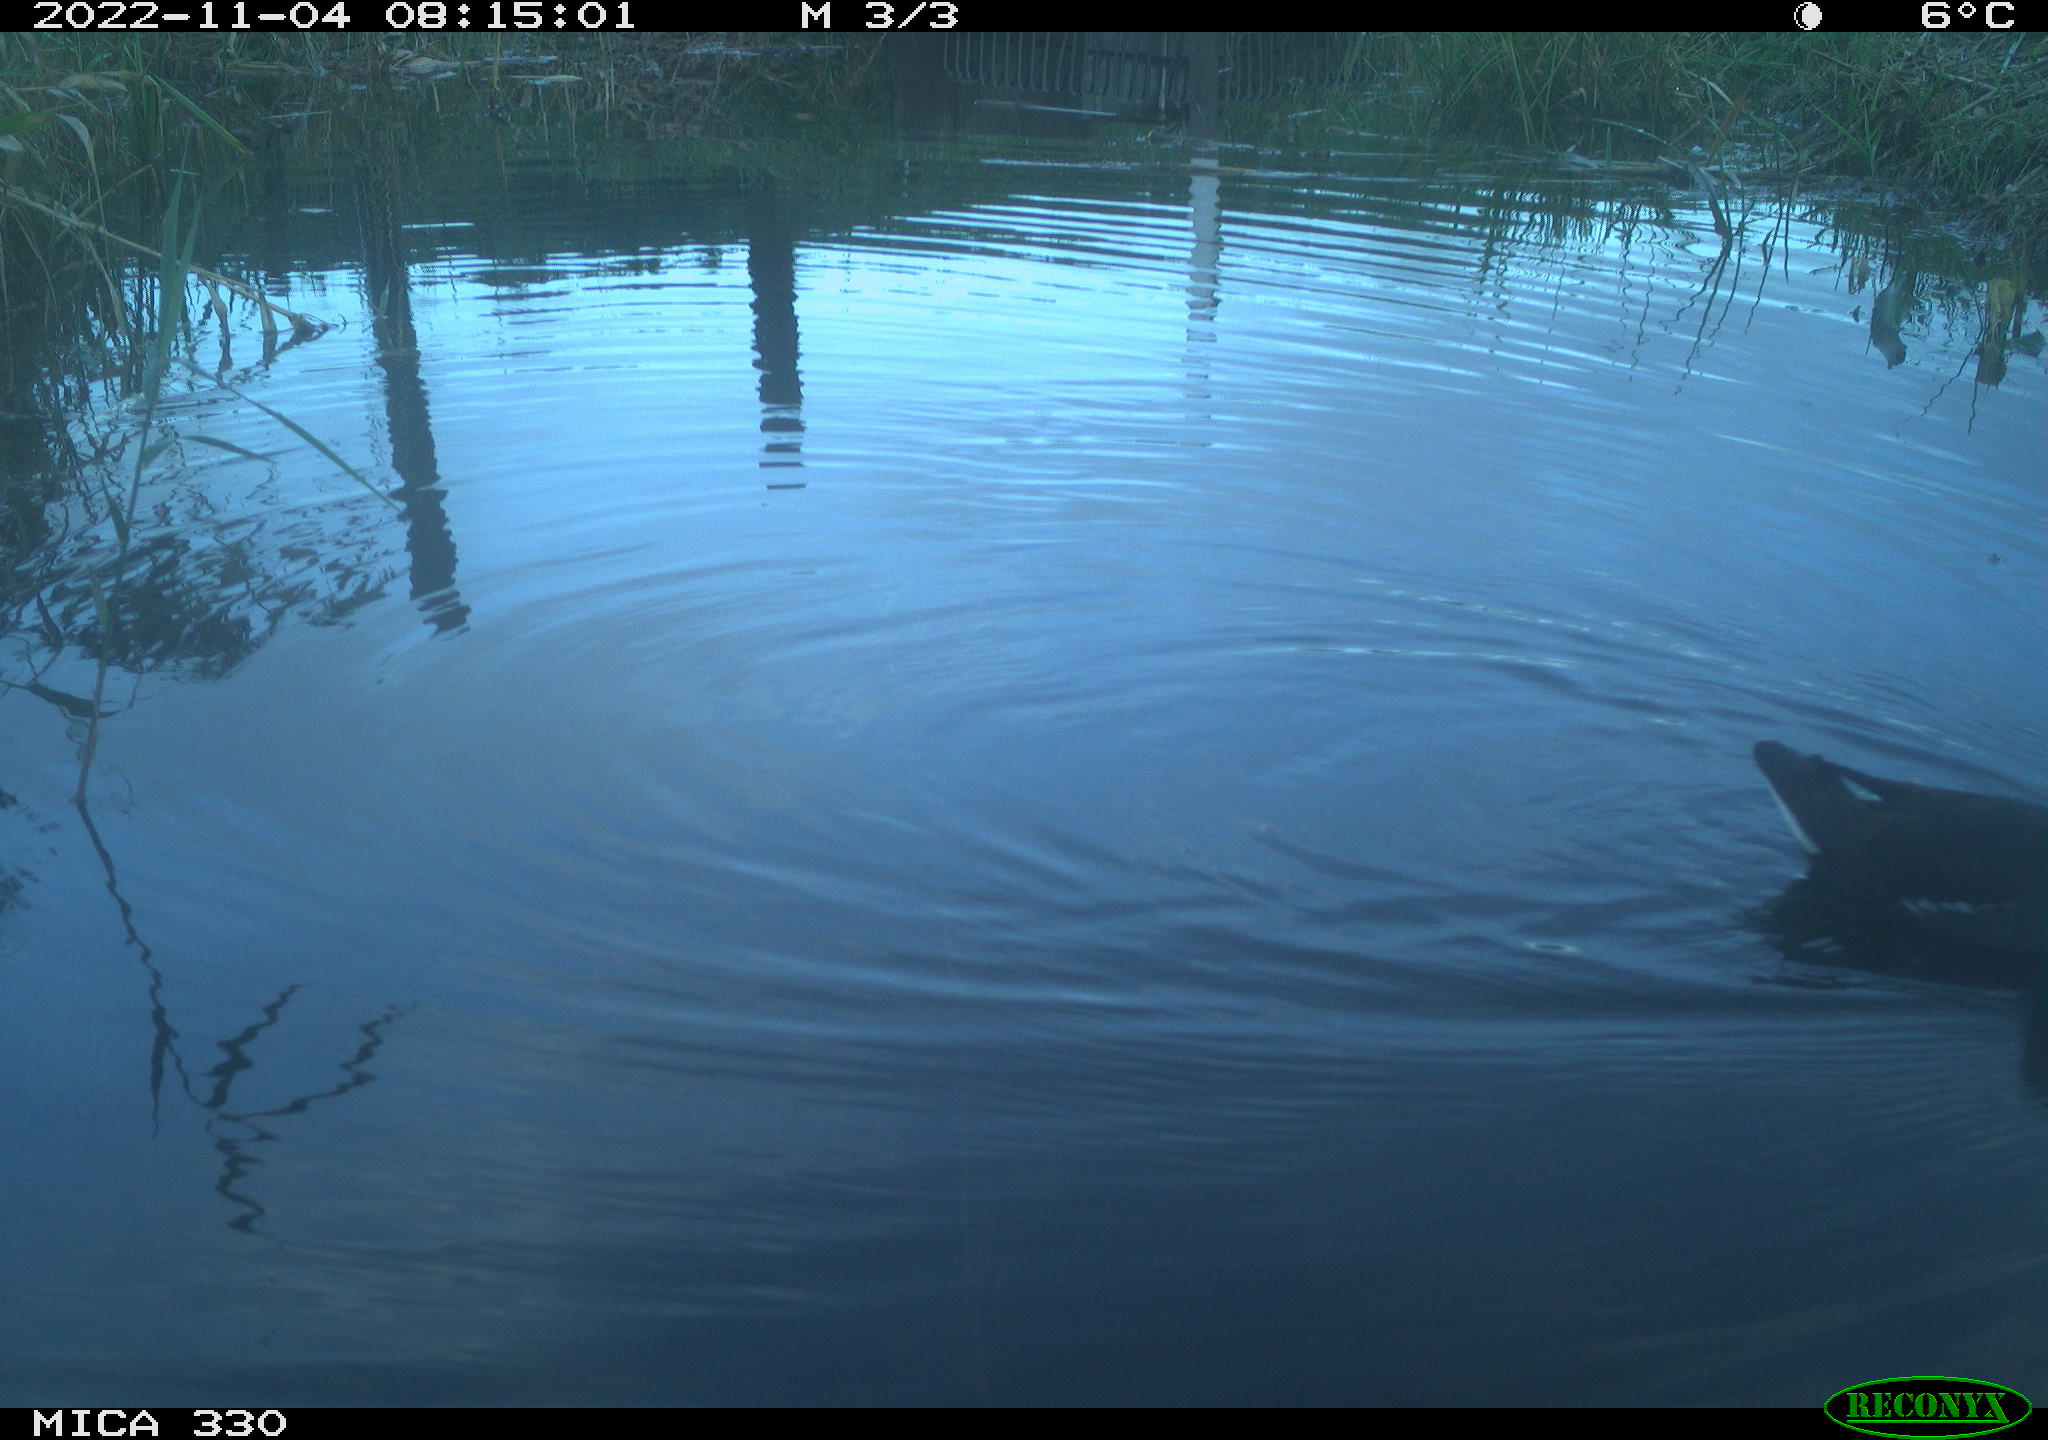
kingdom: Animalia
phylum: Chordata
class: Aves
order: Gruiformes
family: Rallidae
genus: Gallinula
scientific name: Gallinula chloropus
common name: Common moorhen
